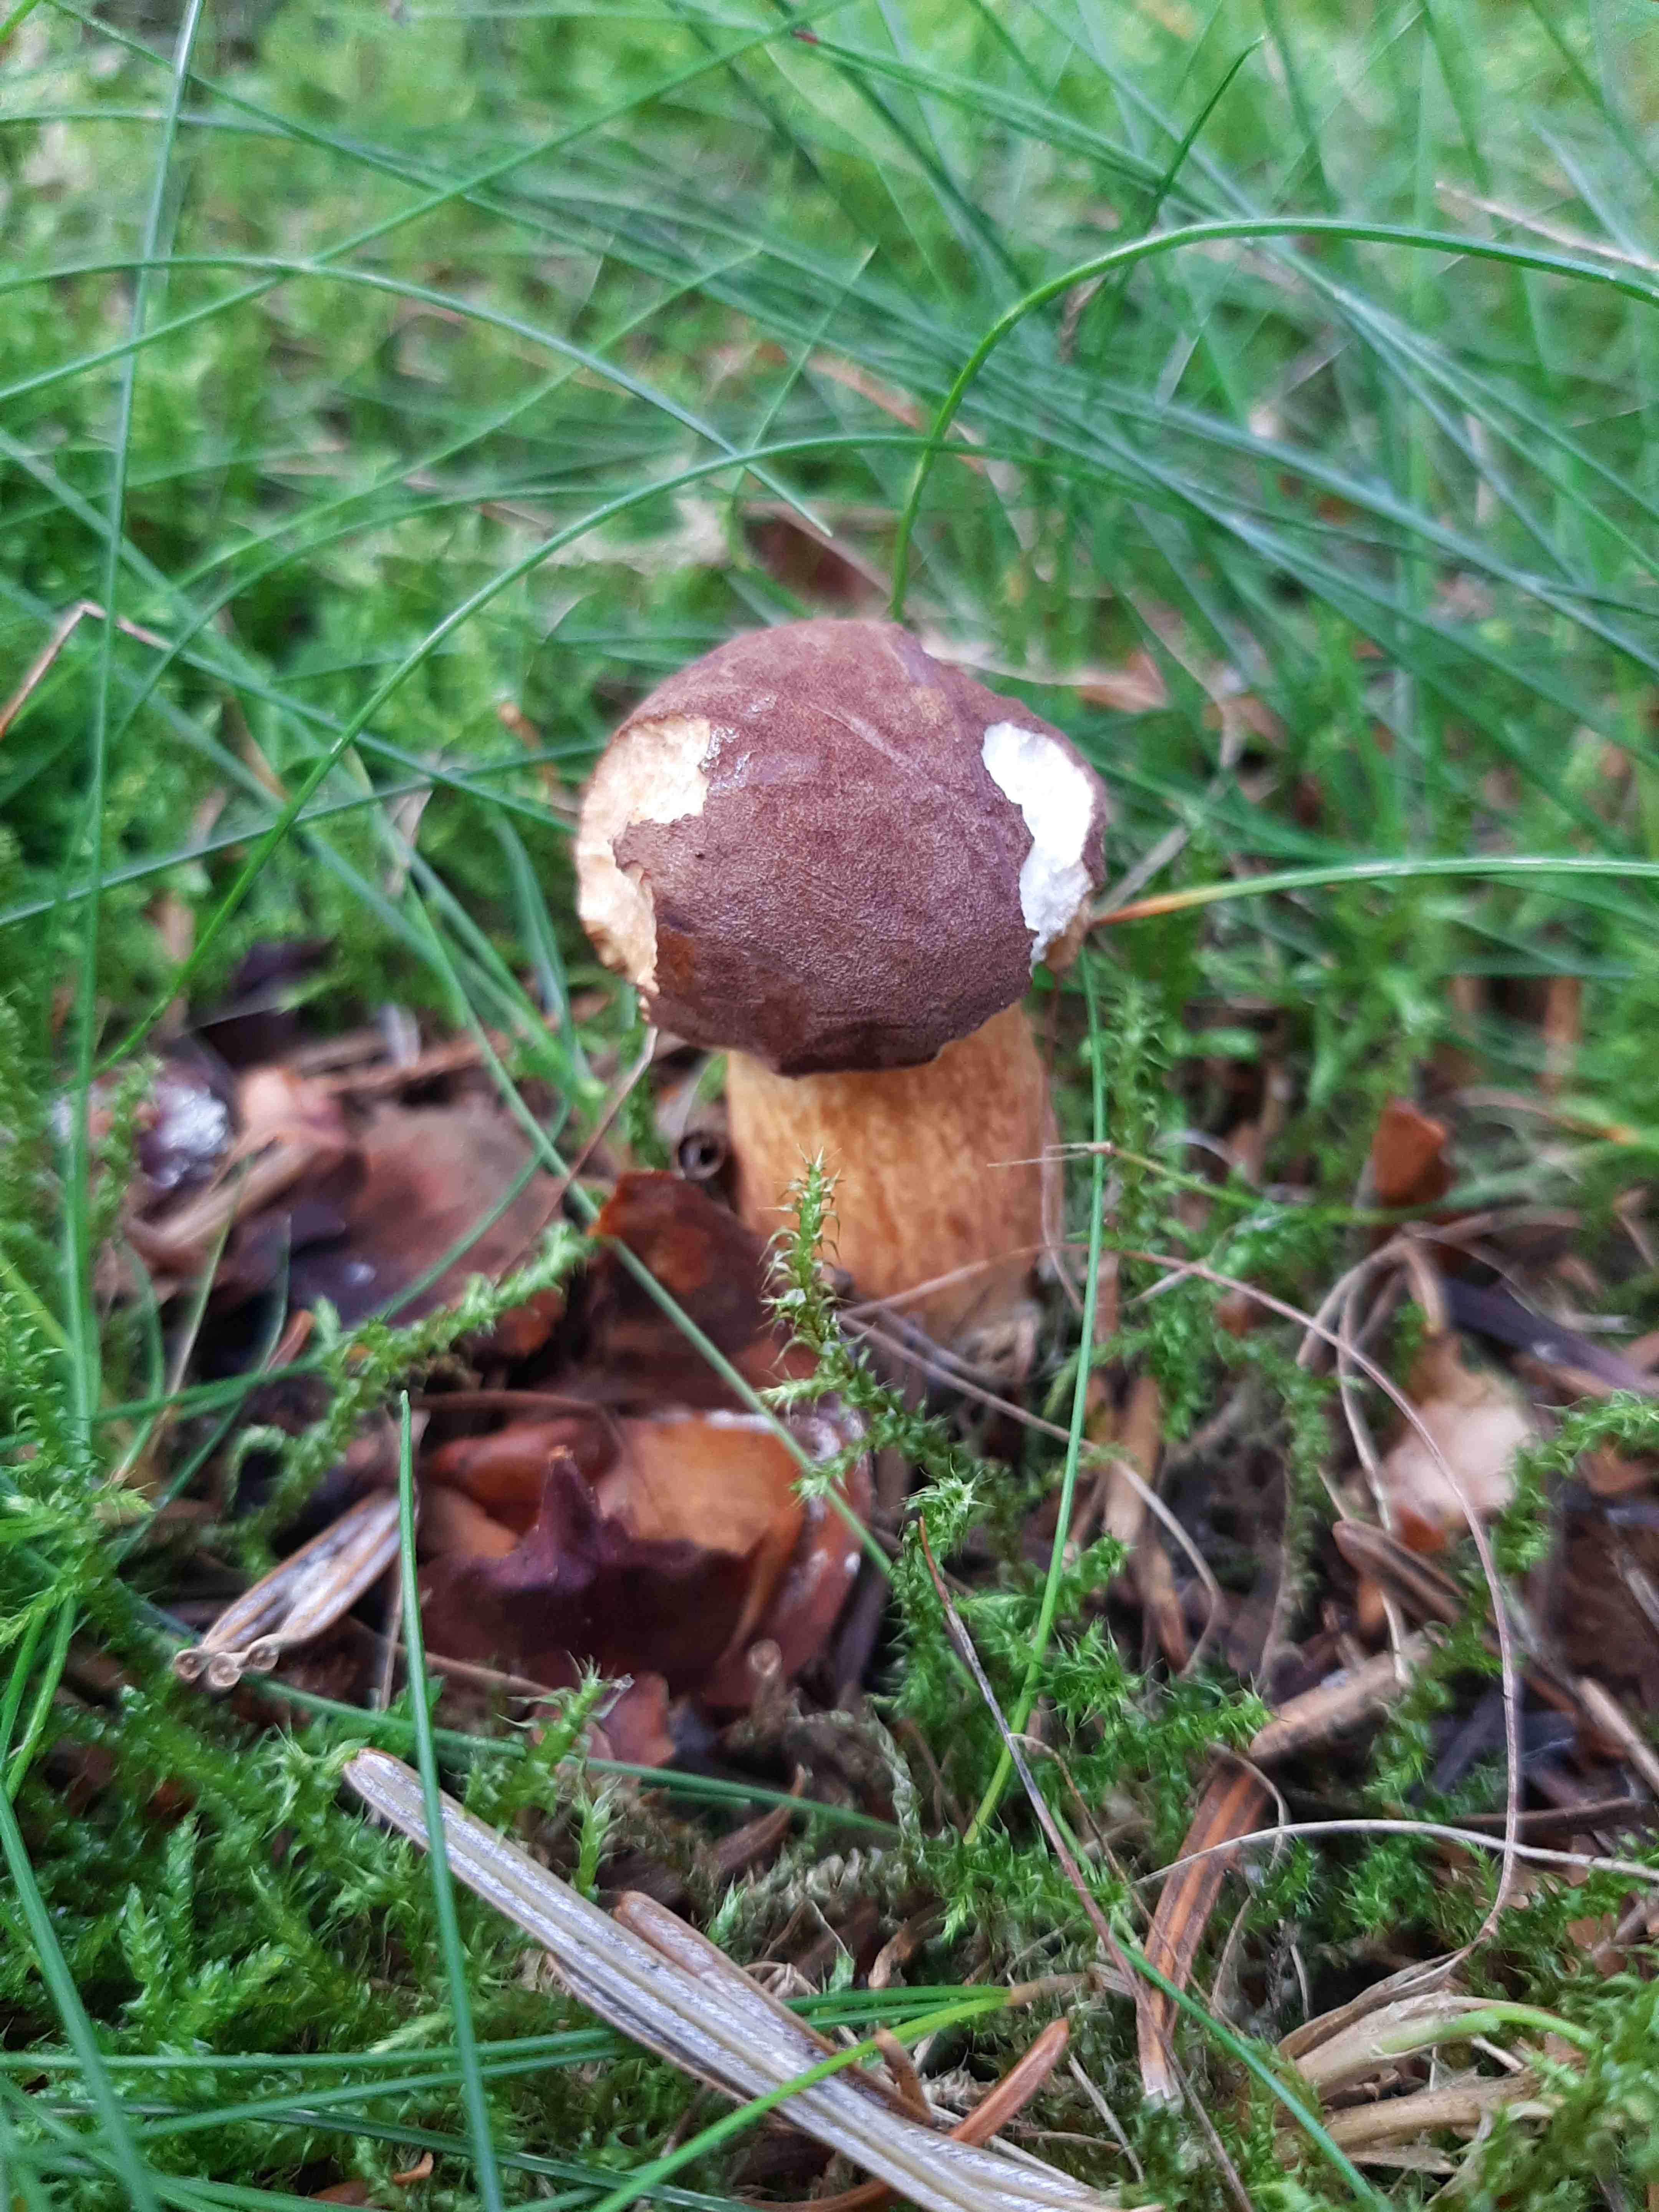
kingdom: Fungi
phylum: Basidiomycota
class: Agaricomycetes
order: Boletales
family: Boletaceae
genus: Imleria
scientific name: Imleria badia
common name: brunstokket rørhat
